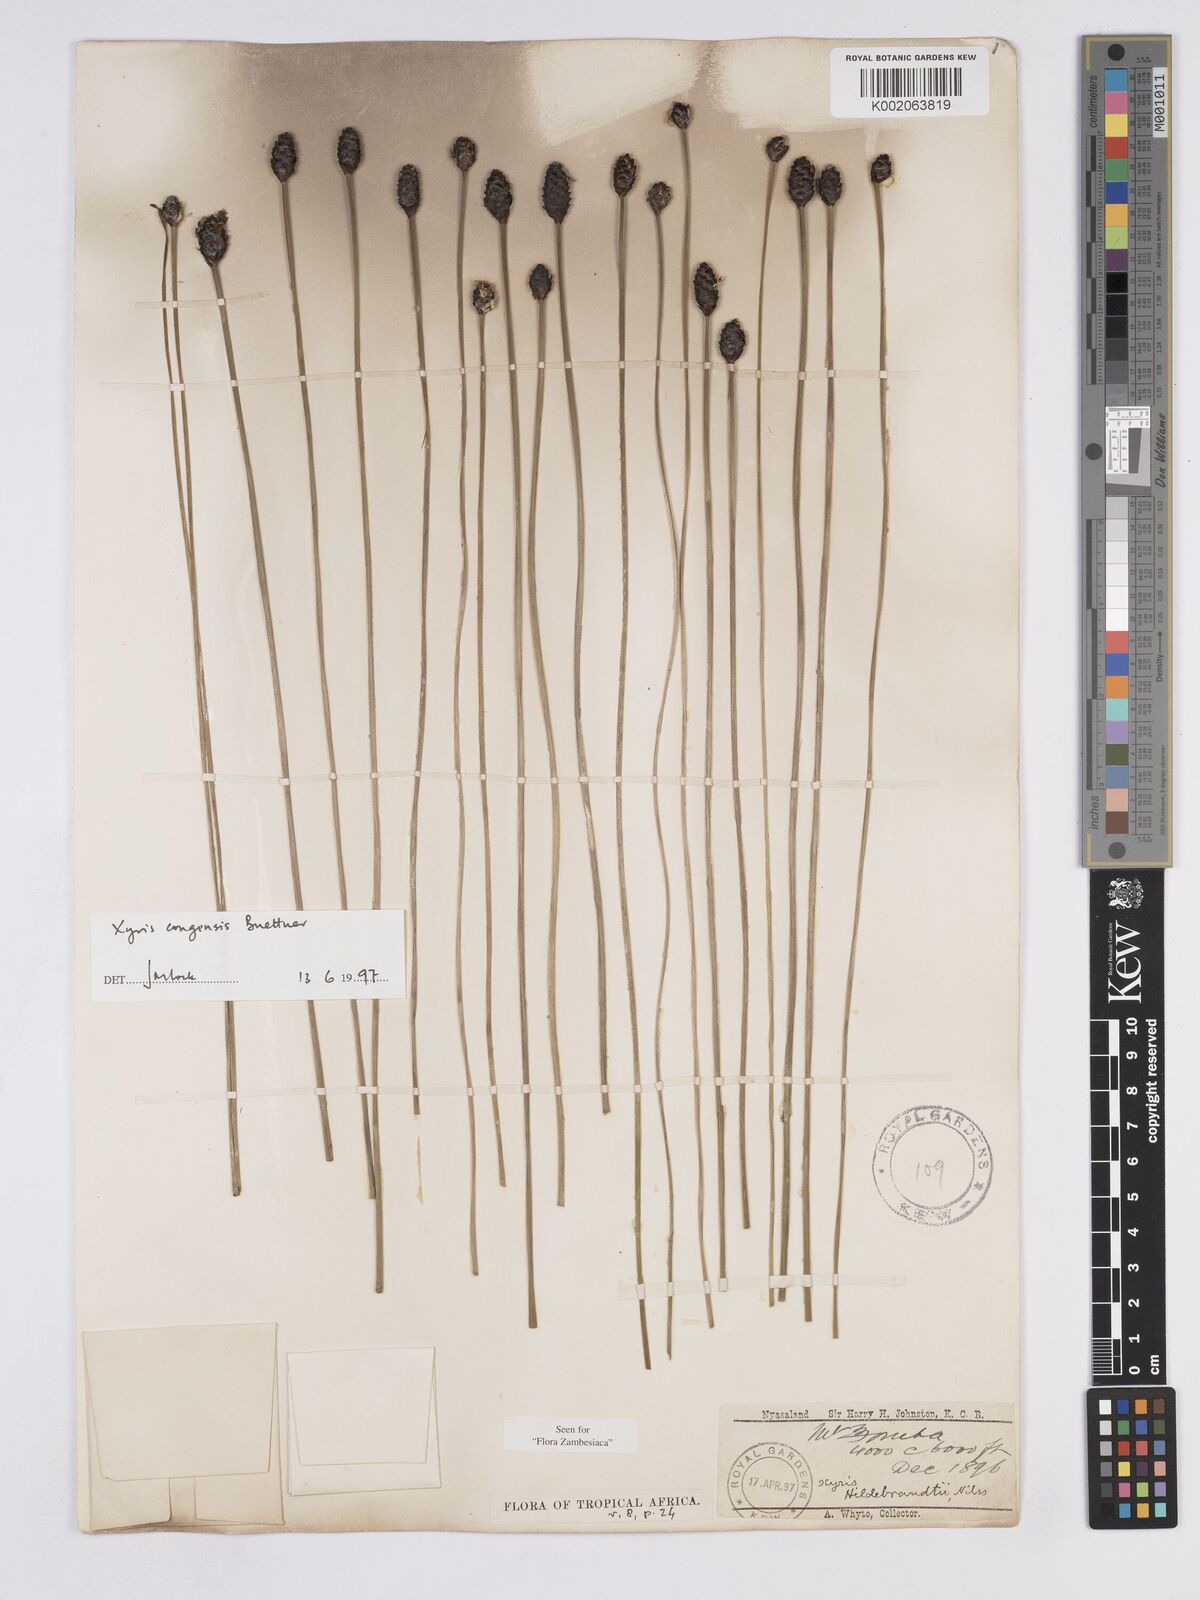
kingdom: Plantae
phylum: Tracheophyta
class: Liliopsida
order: Poales
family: Xyridaceae
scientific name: Xyridaceae
